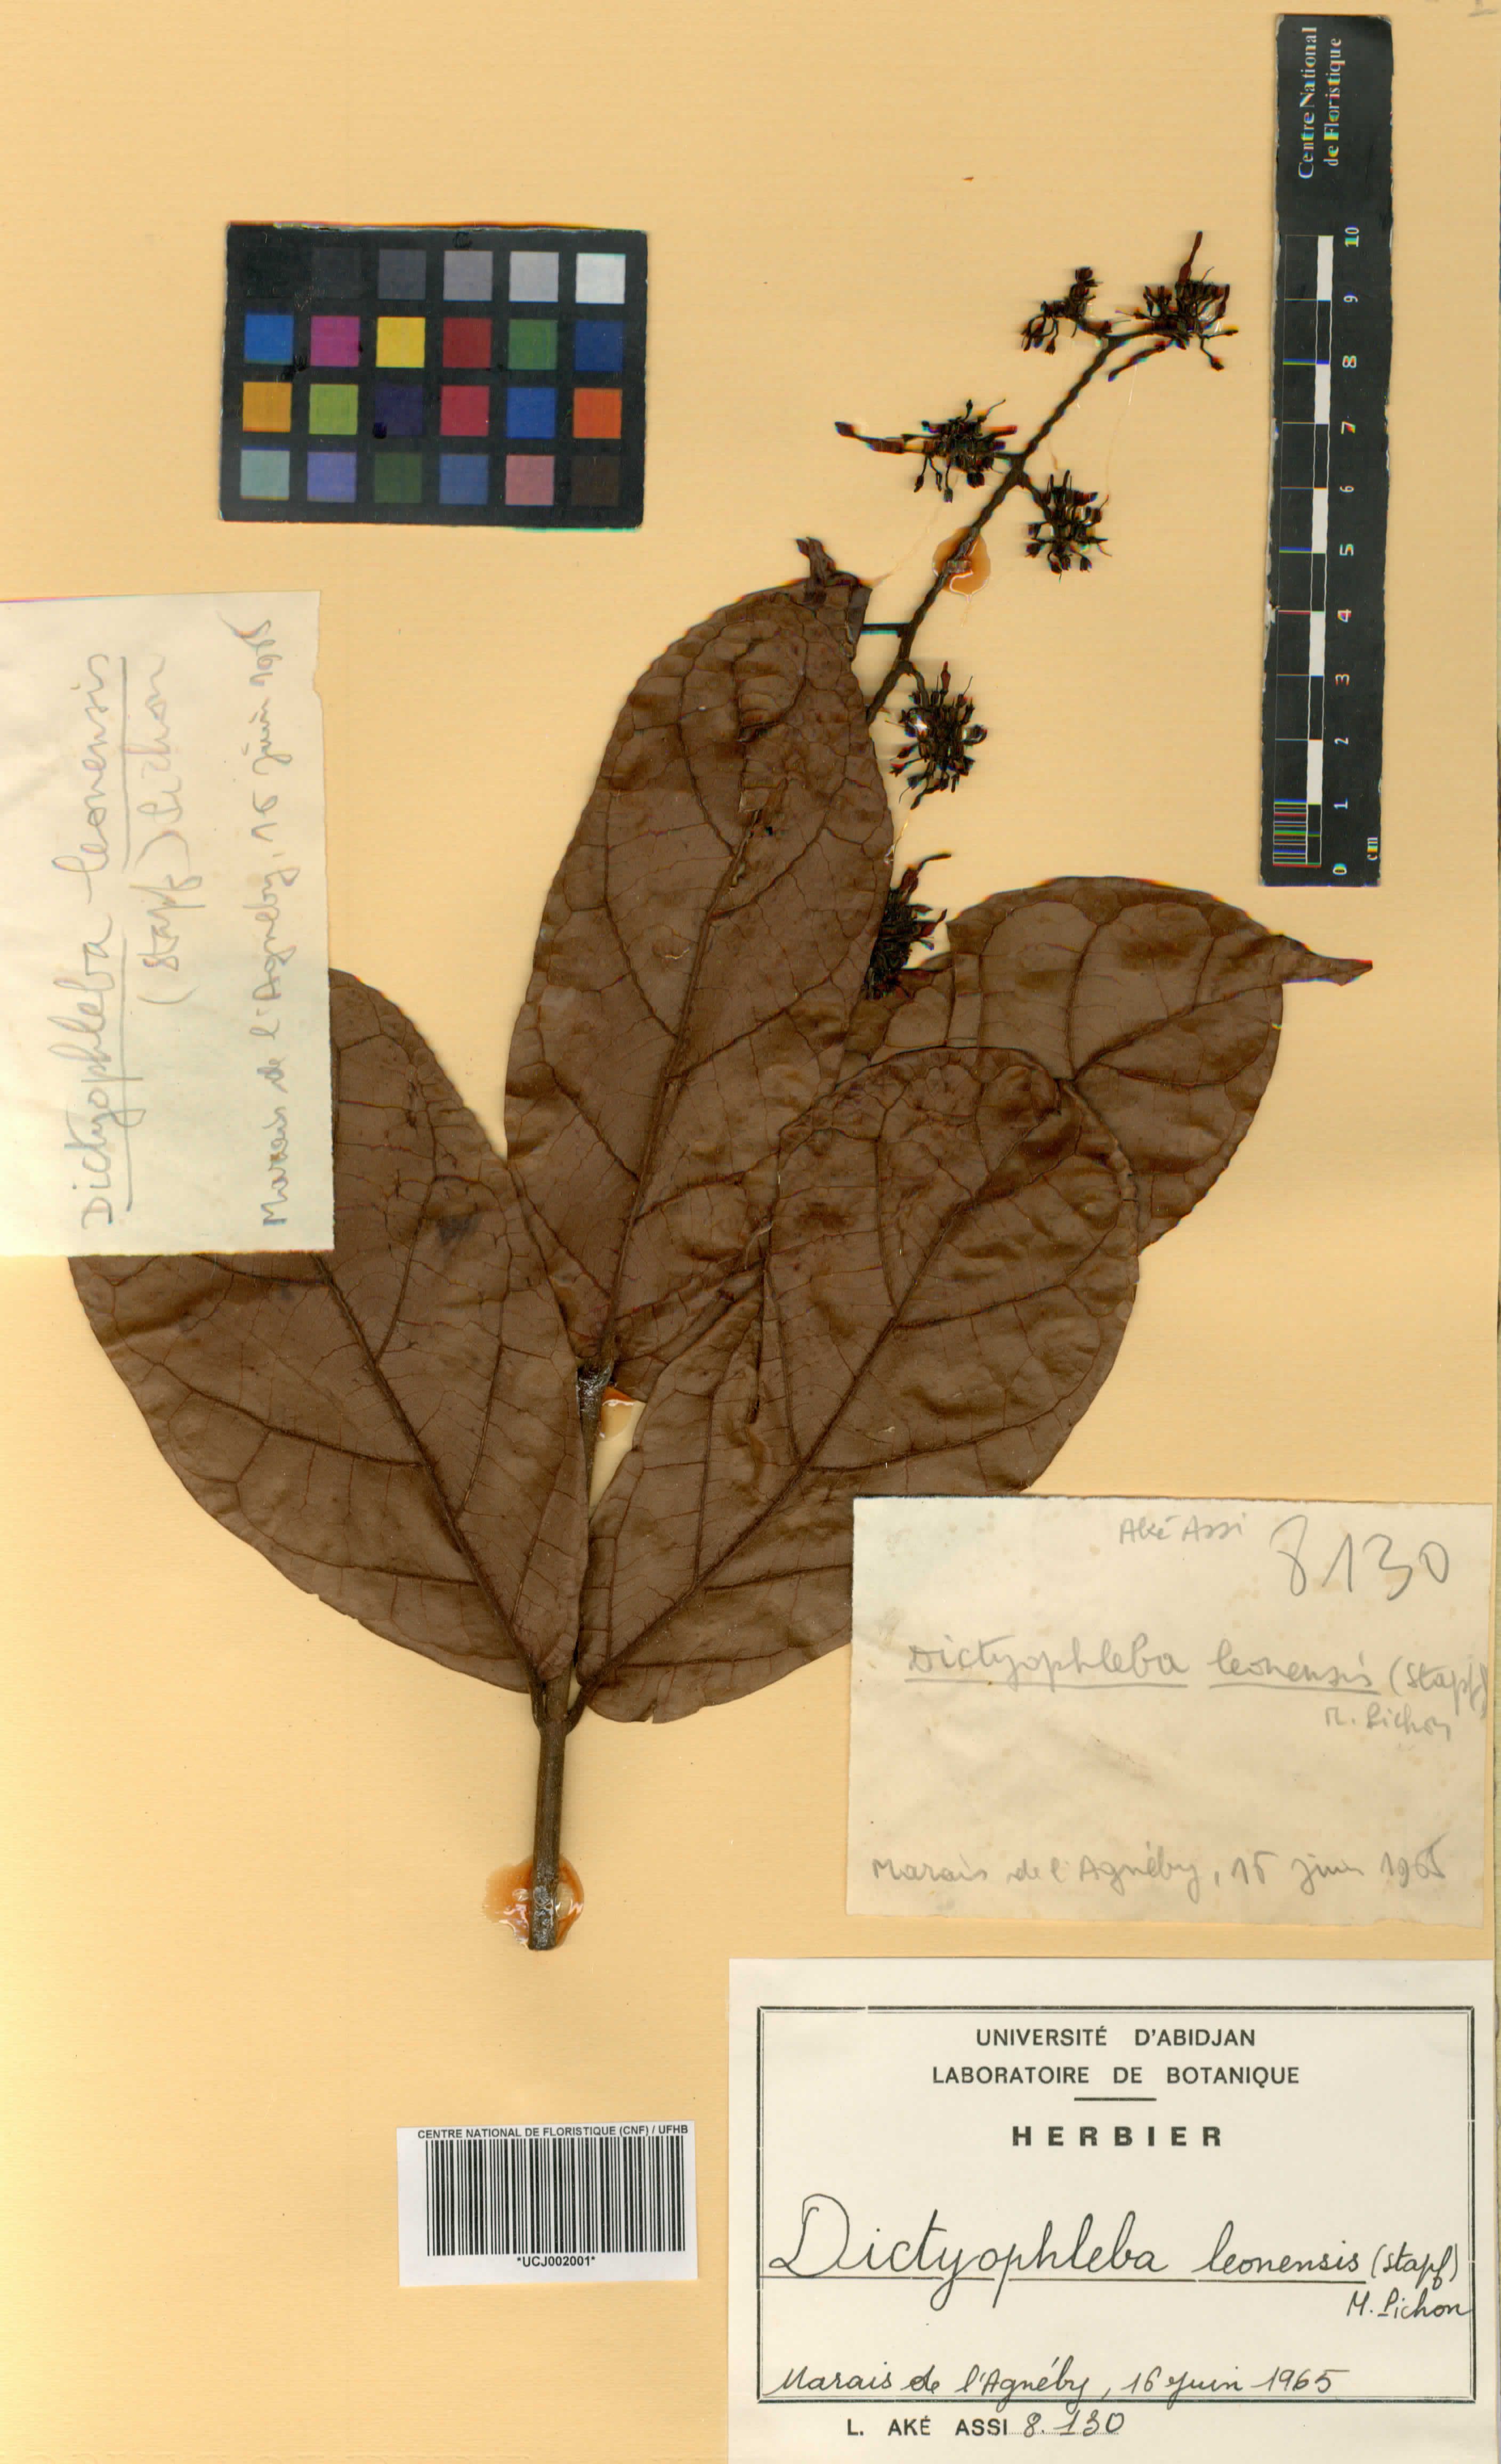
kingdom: Plantae
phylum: Tracheophyta
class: Magnoliopsida
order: Gentianales
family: Apocynaceae
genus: Dictyophleba
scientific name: Dictyophleba leonensis
